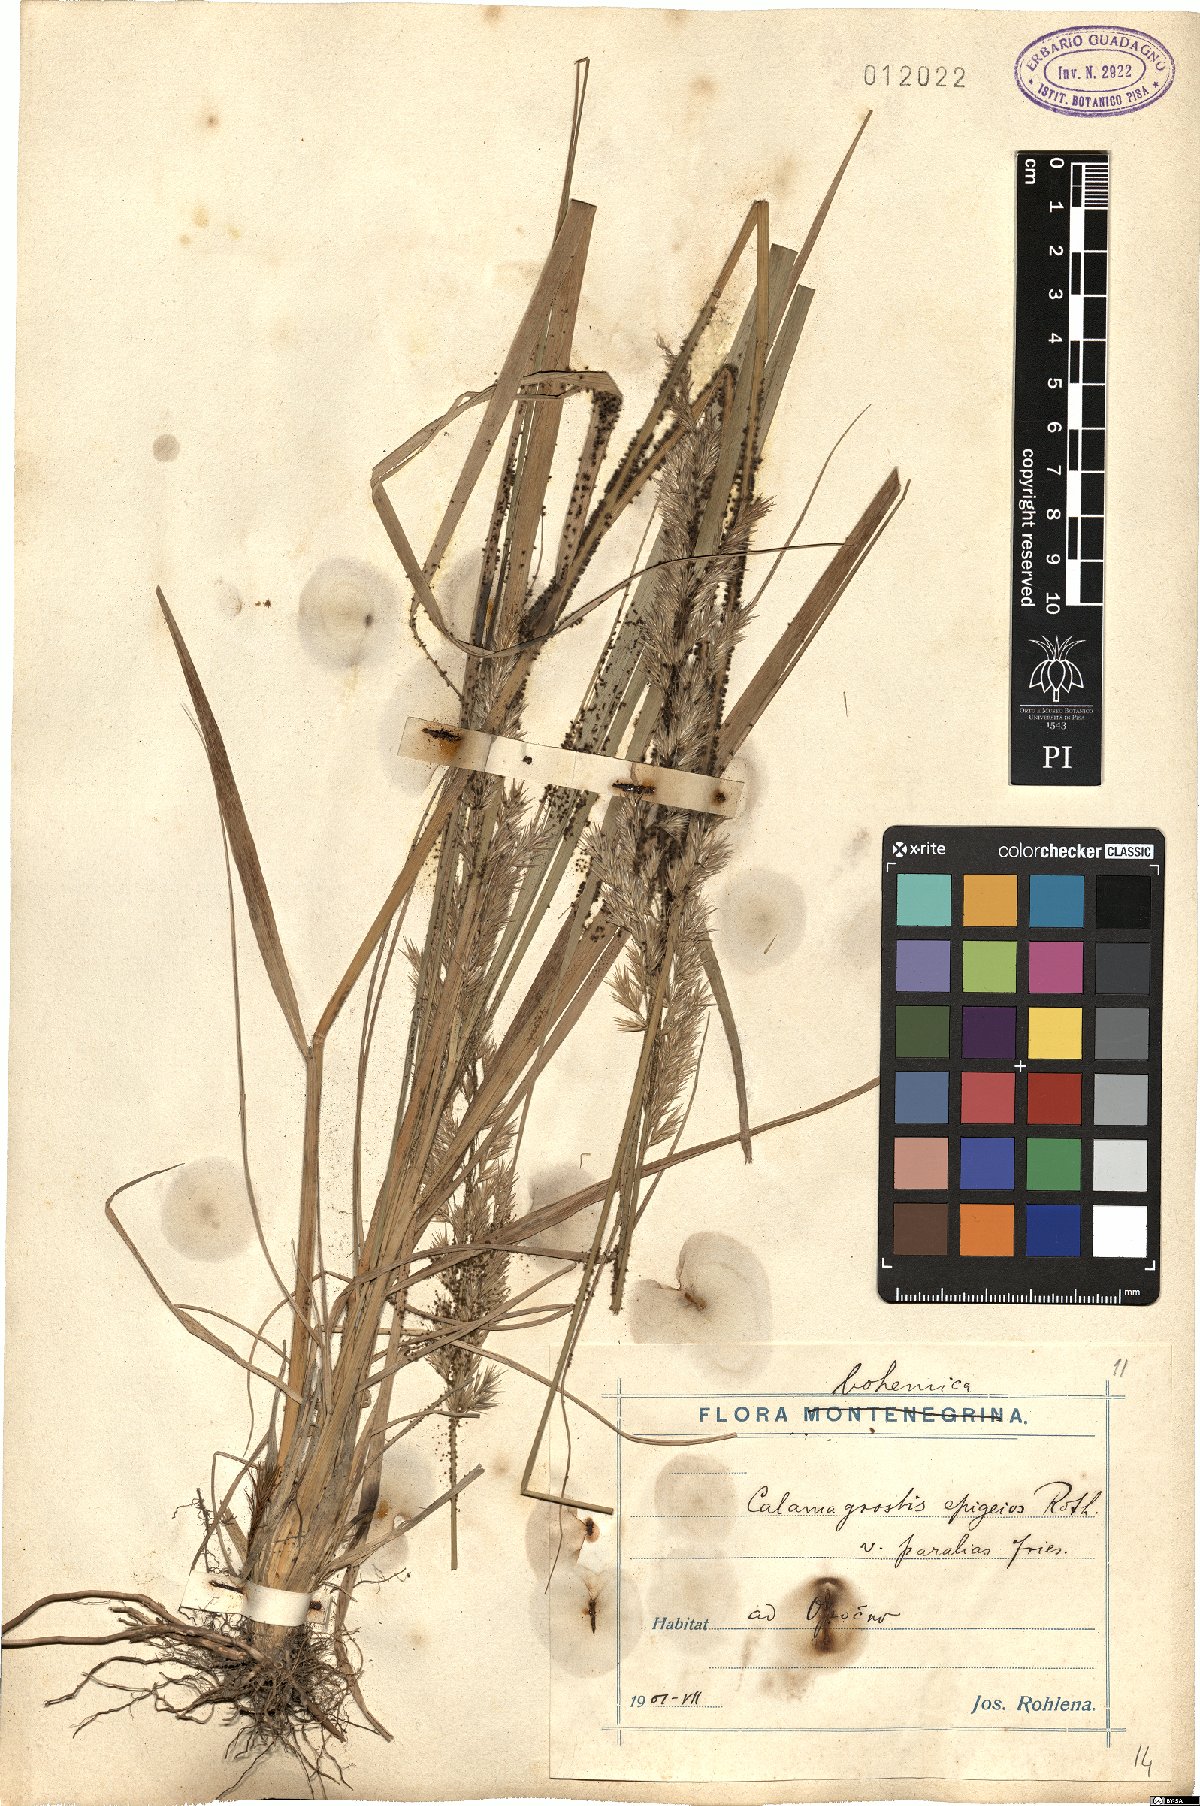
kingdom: Plantae
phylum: Tracheophyta
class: Liliopsida
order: Poales
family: Poaceae
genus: Calamagrostis
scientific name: Calamagrostis epigejos
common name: Wood small-reed
